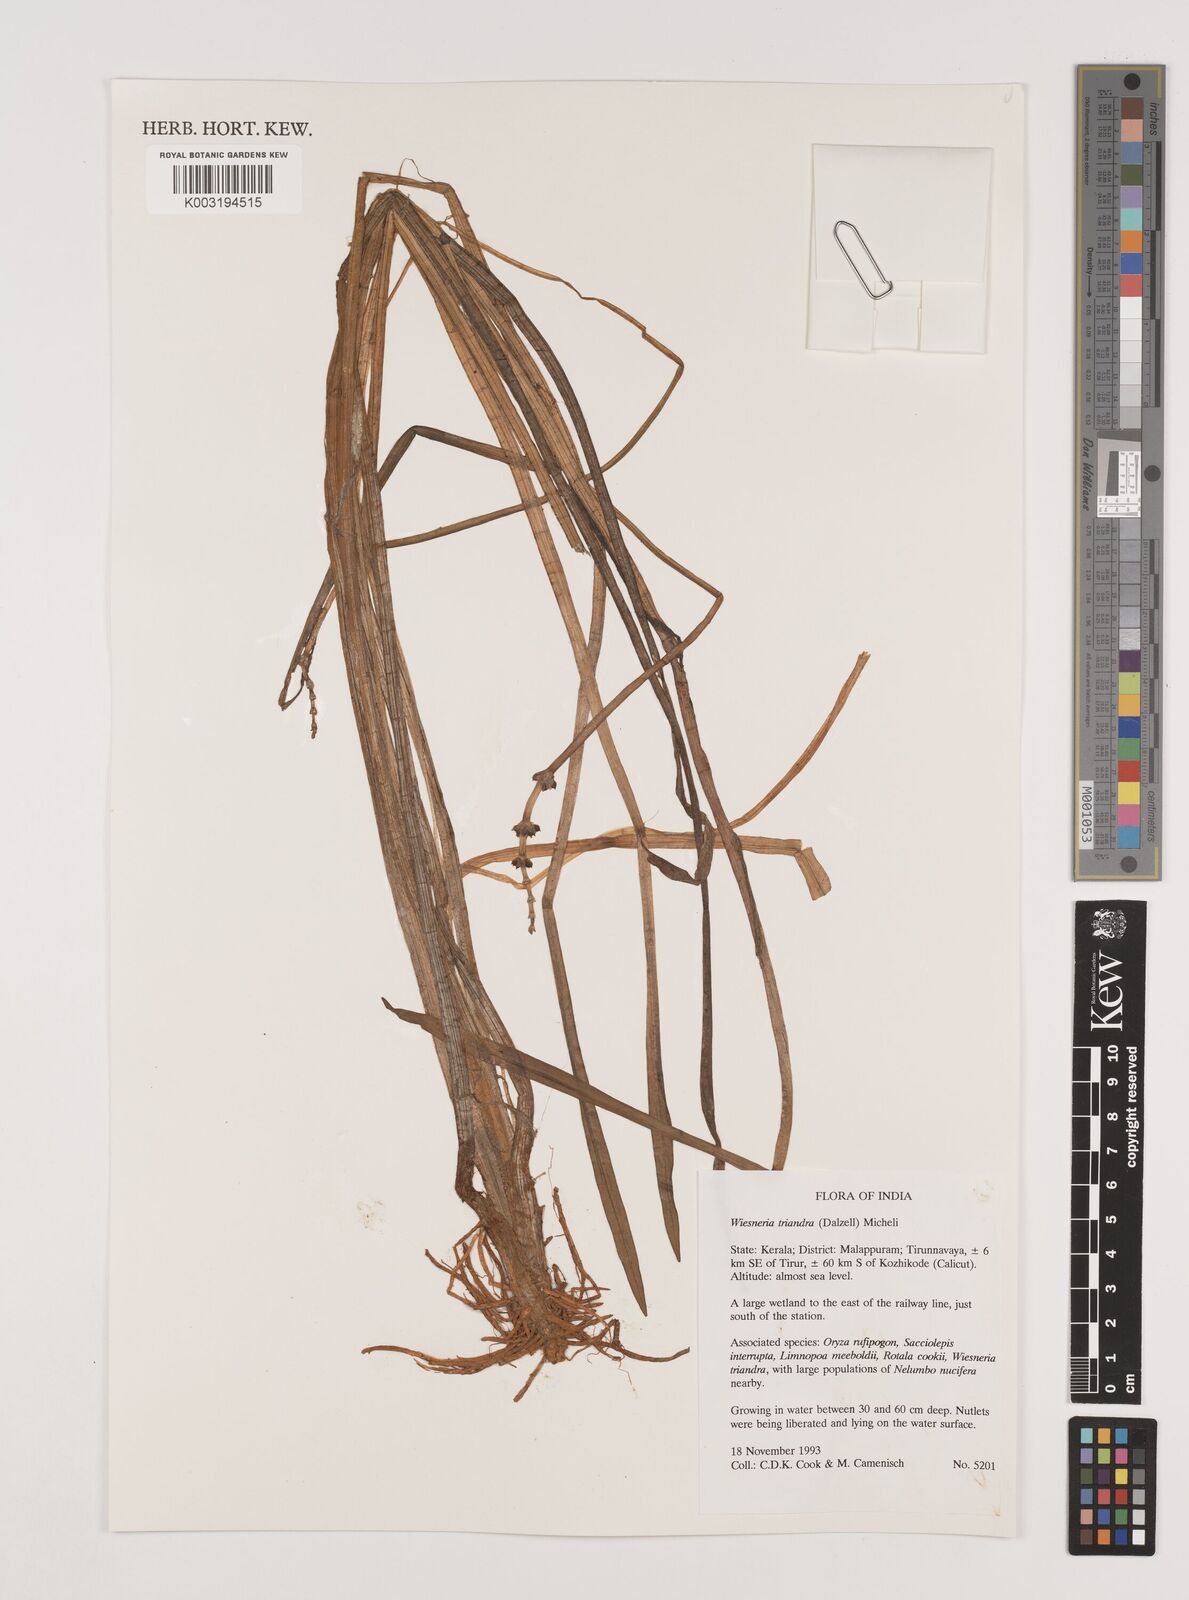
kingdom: Plantae
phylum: Tracheophyta
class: Liliopsida
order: Alismatales
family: Alismataceae
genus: Wiesneria
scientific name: Wiesneria triandra
